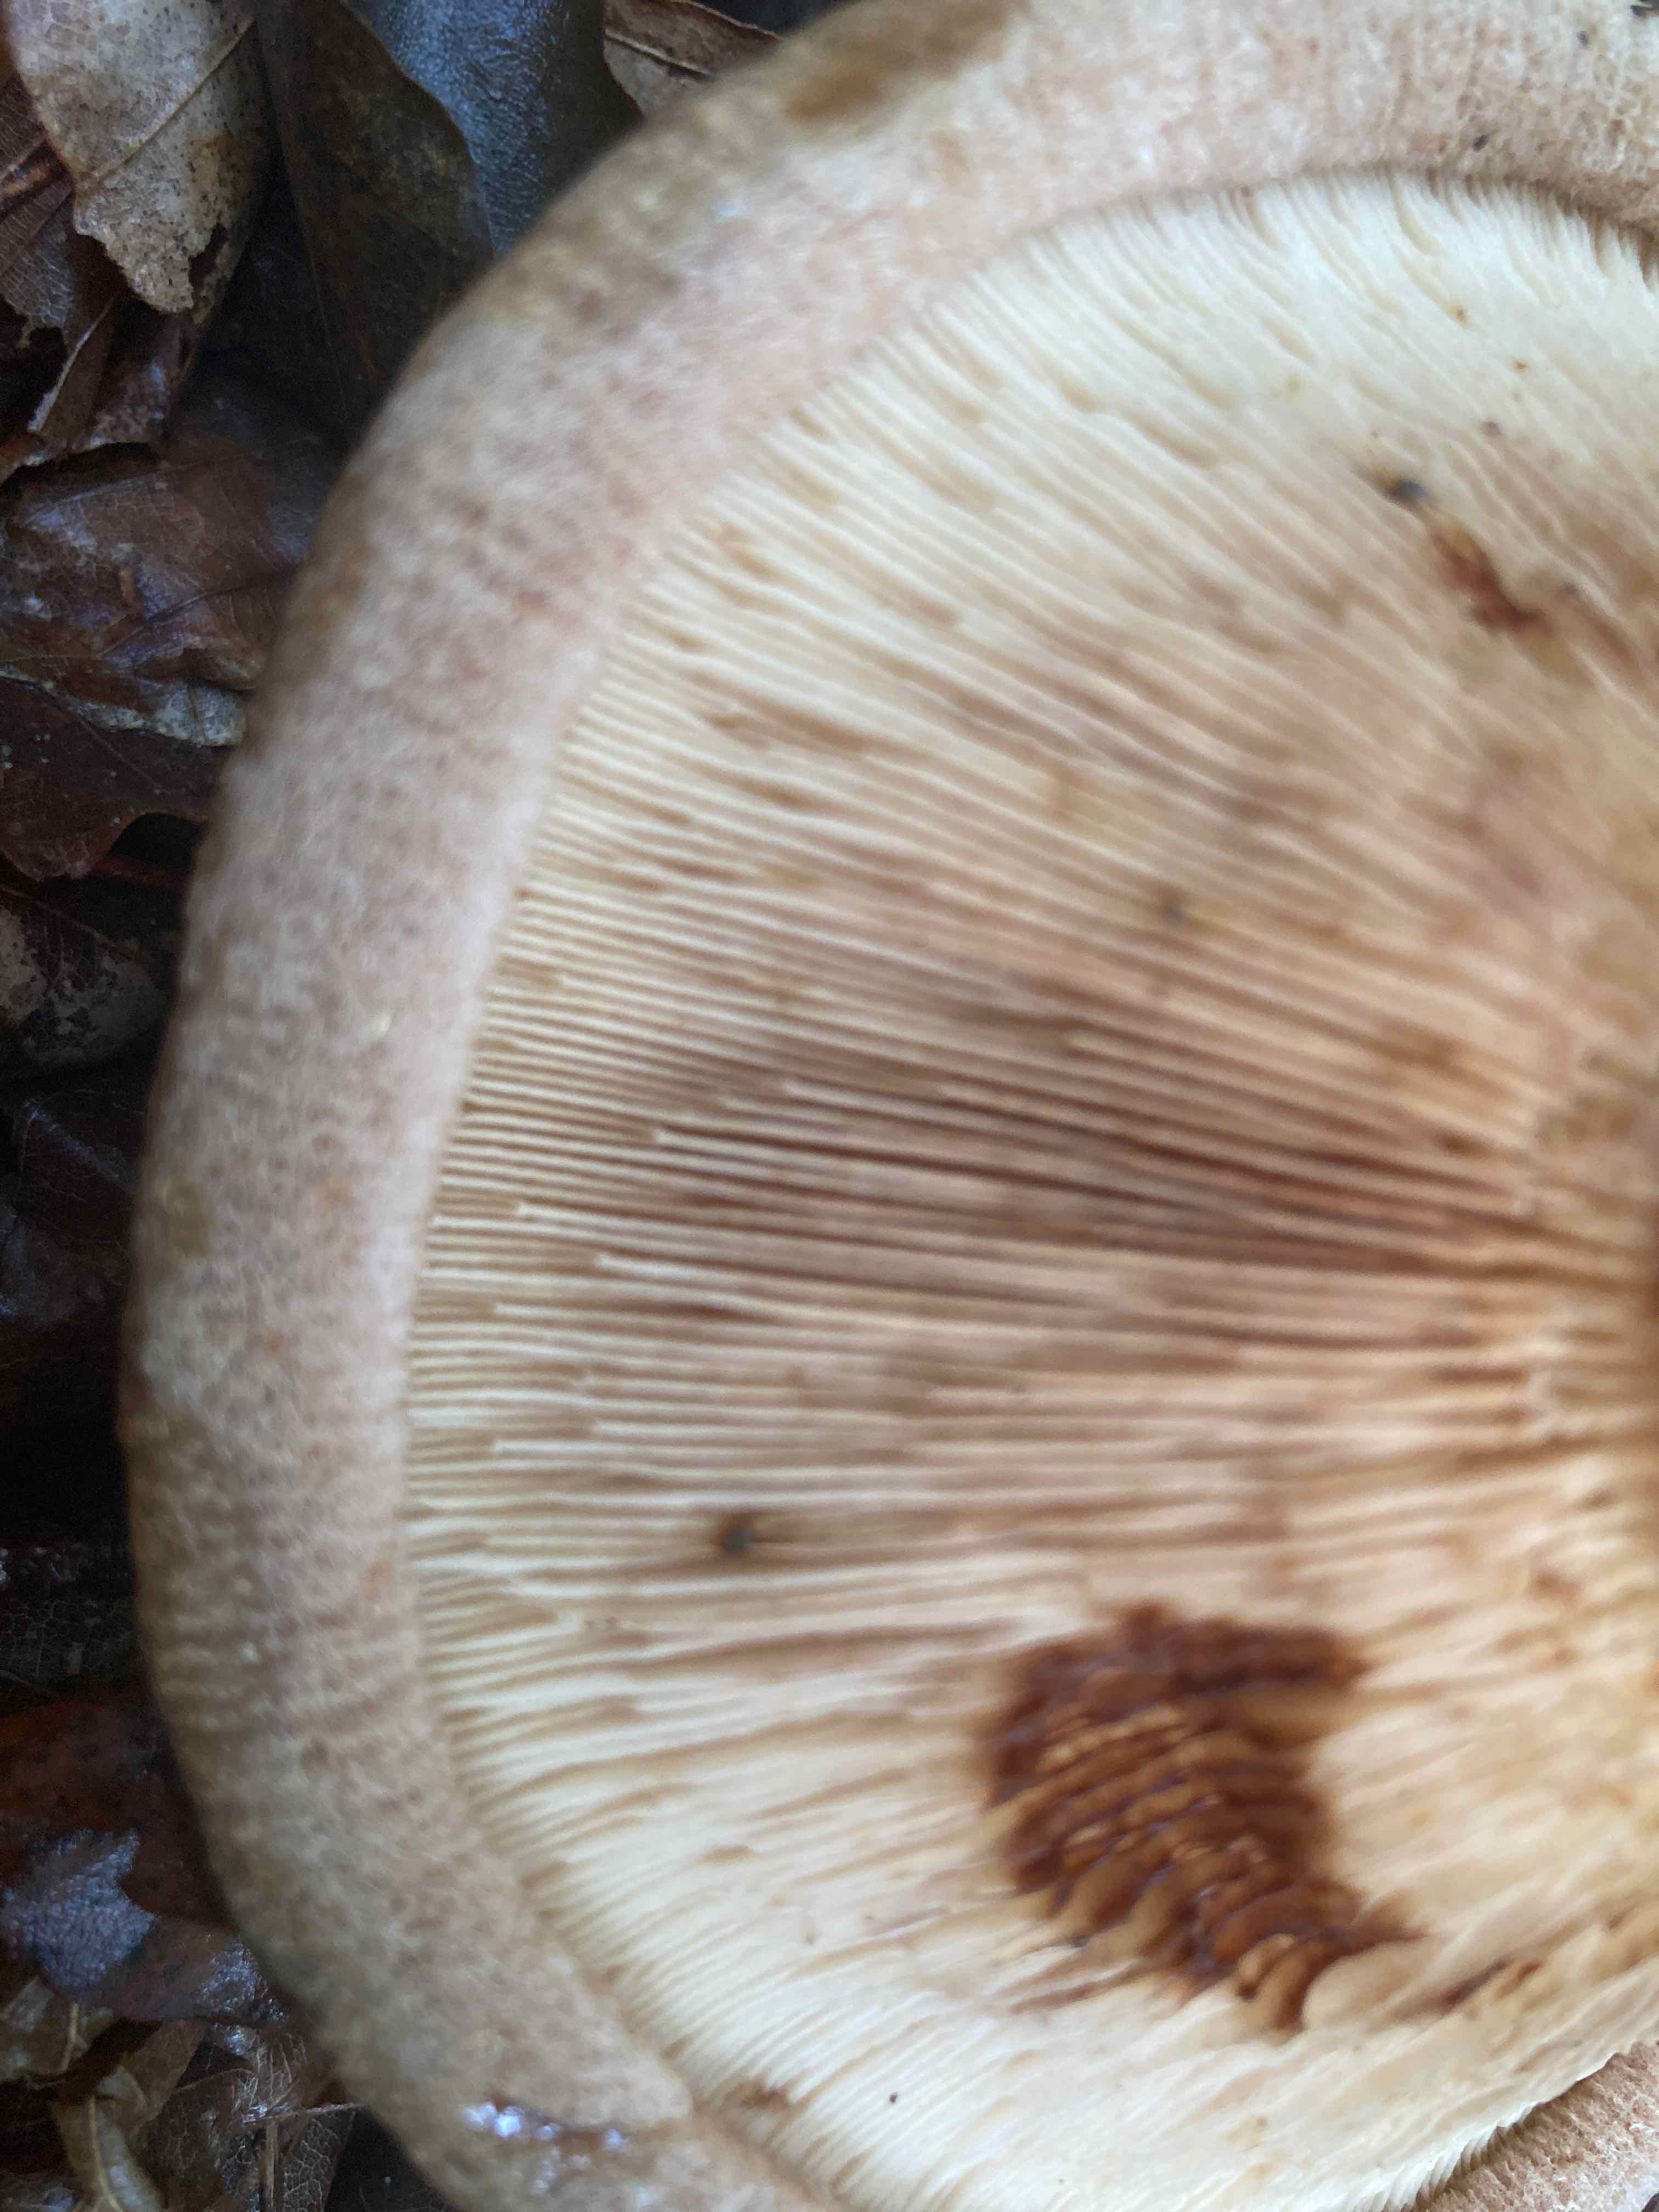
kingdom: Fungi
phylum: Basidiomycota
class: Agaricomycetes
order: Boletales
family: Paxillaceae
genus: Paxillus
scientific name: Paxillus involutus
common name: almindelig netbladhat
